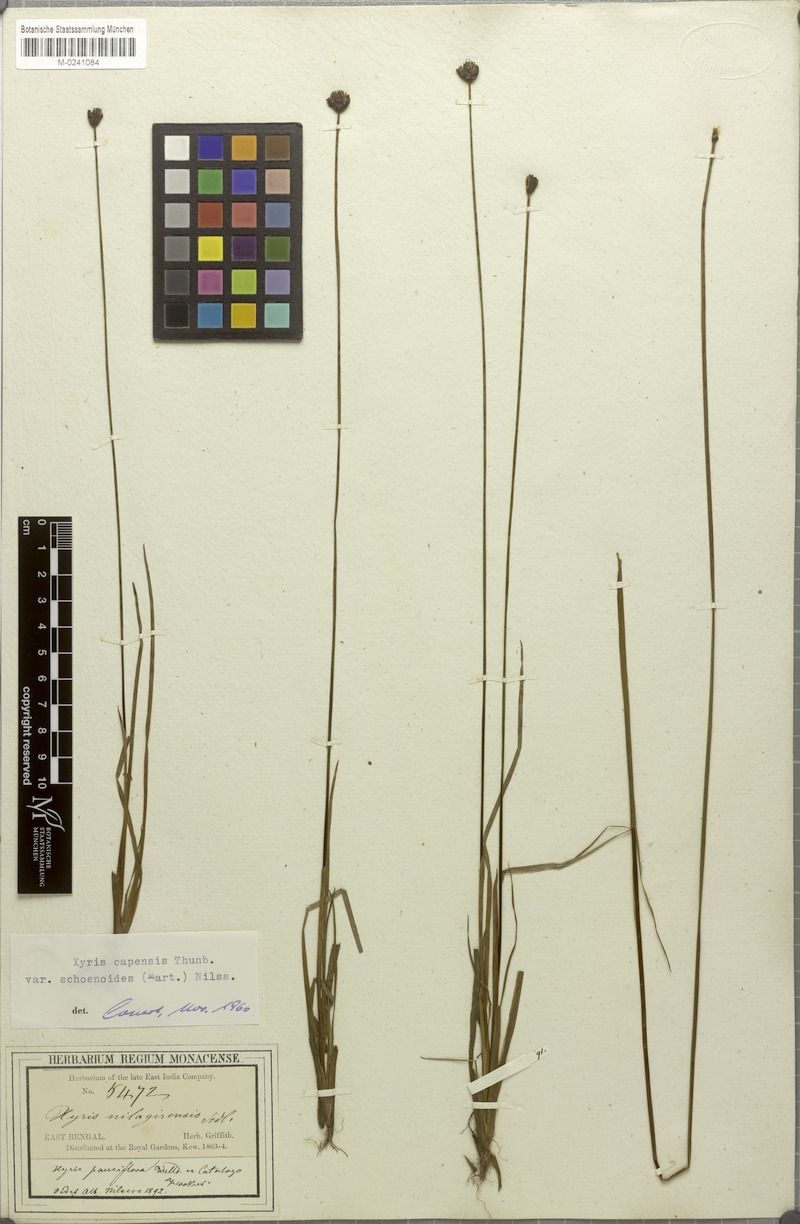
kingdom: Plantae
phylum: Tracheophyta
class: Liliopsida
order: Poales
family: Xyridaceae
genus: Xyris
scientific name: Xyris capensis
